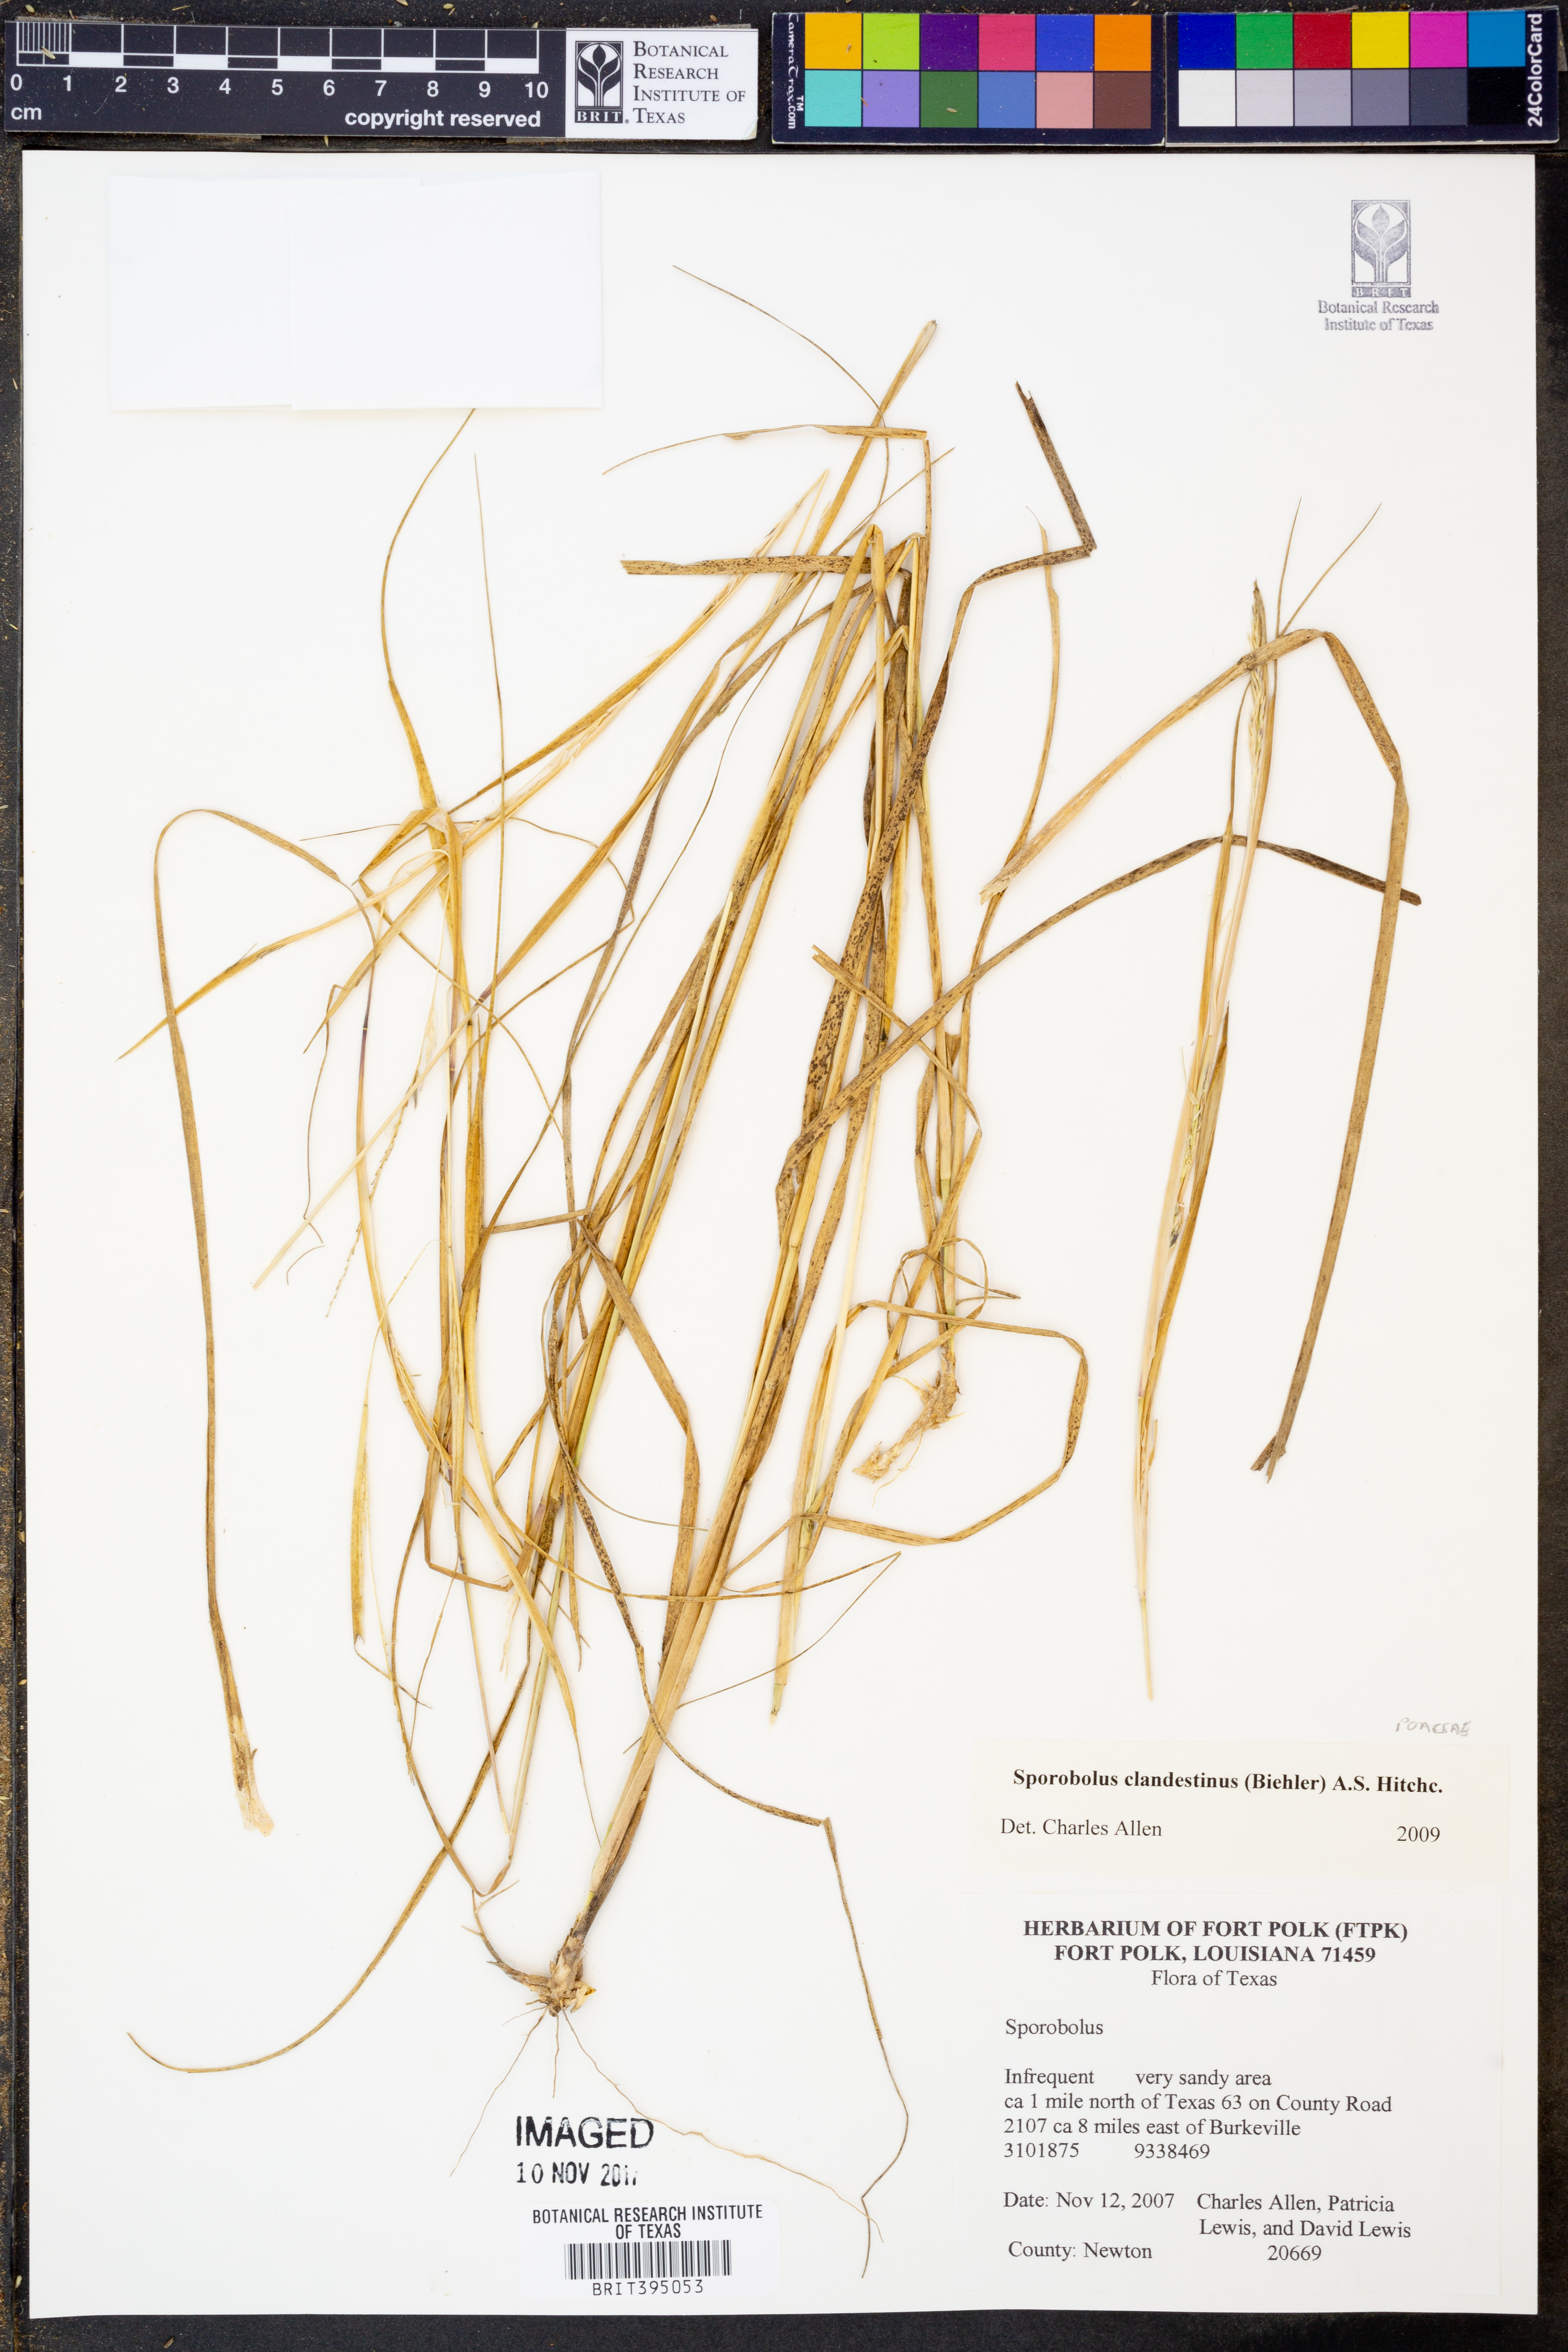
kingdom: Plantae
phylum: Tracheophyta
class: Liliopsida
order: Poales
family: Poaceae
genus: Sporobolus
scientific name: Sporobolus clandestinus
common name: Hidden dropseed
